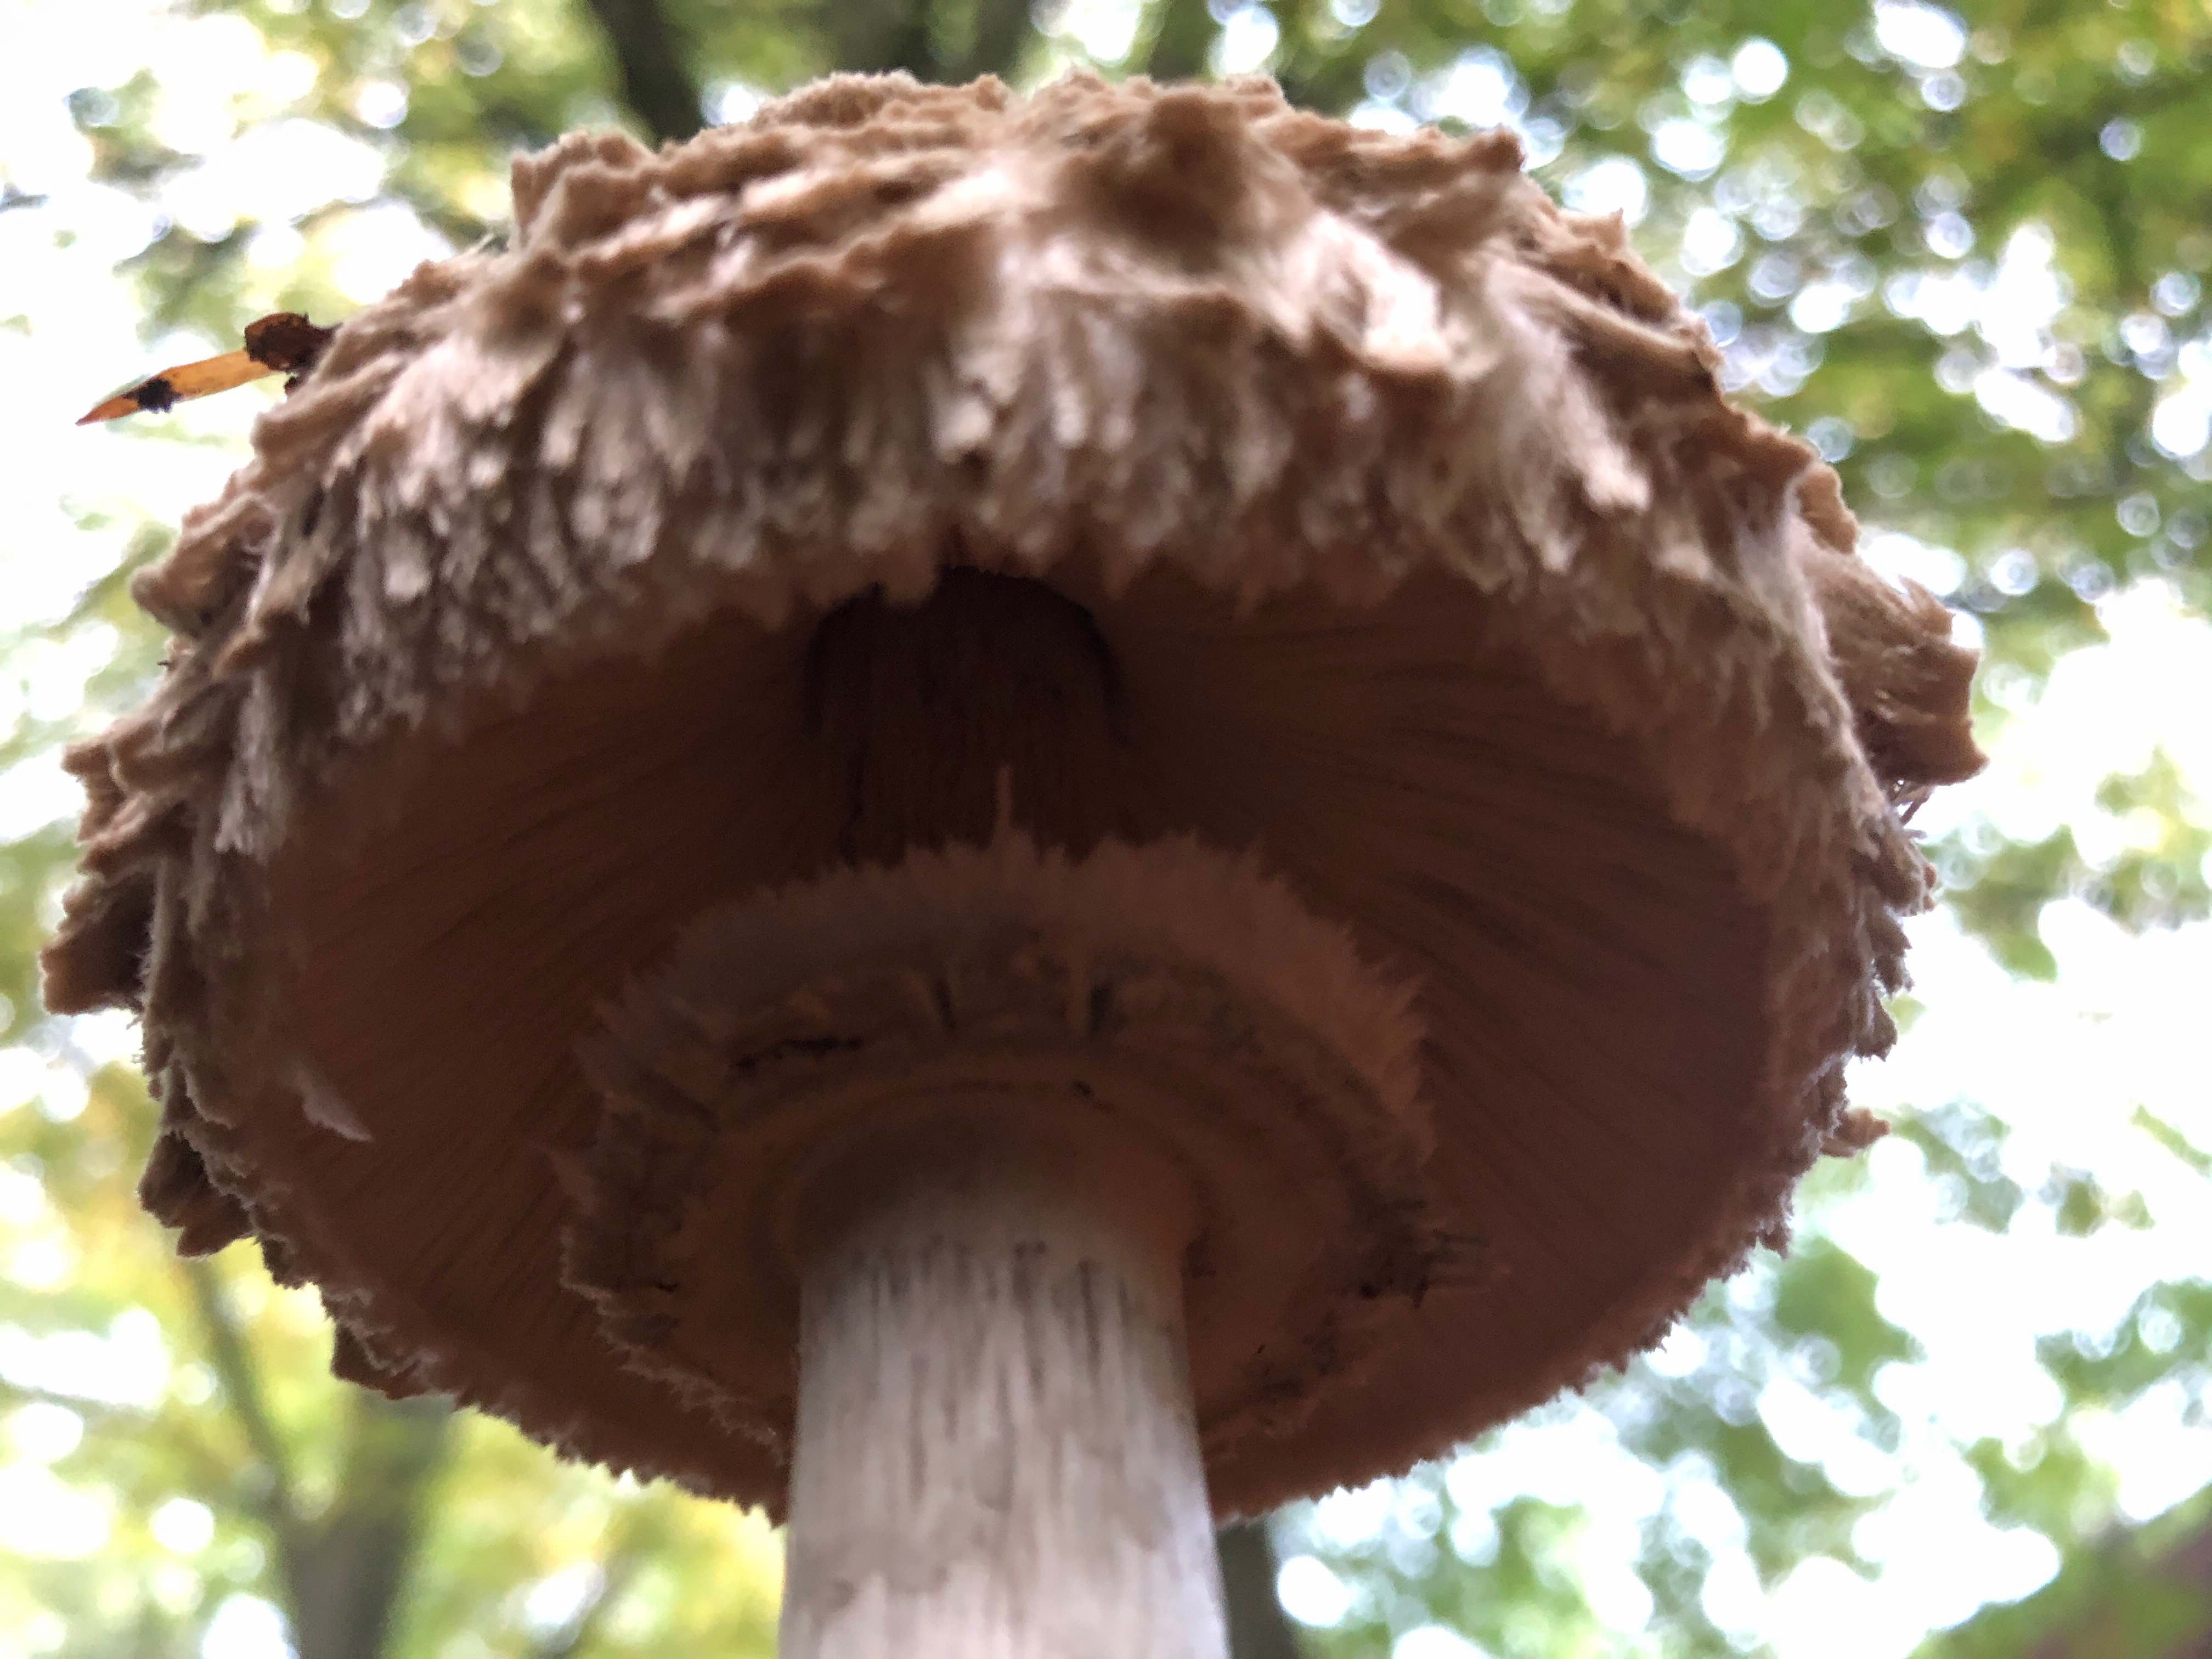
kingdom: Fungi
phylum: Basidiomycota
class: Agaricomycetes
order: Agaricales
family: Agaricaceae
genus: Chlorophyllum
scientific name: Chlorophyllum
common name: rabarberhat
